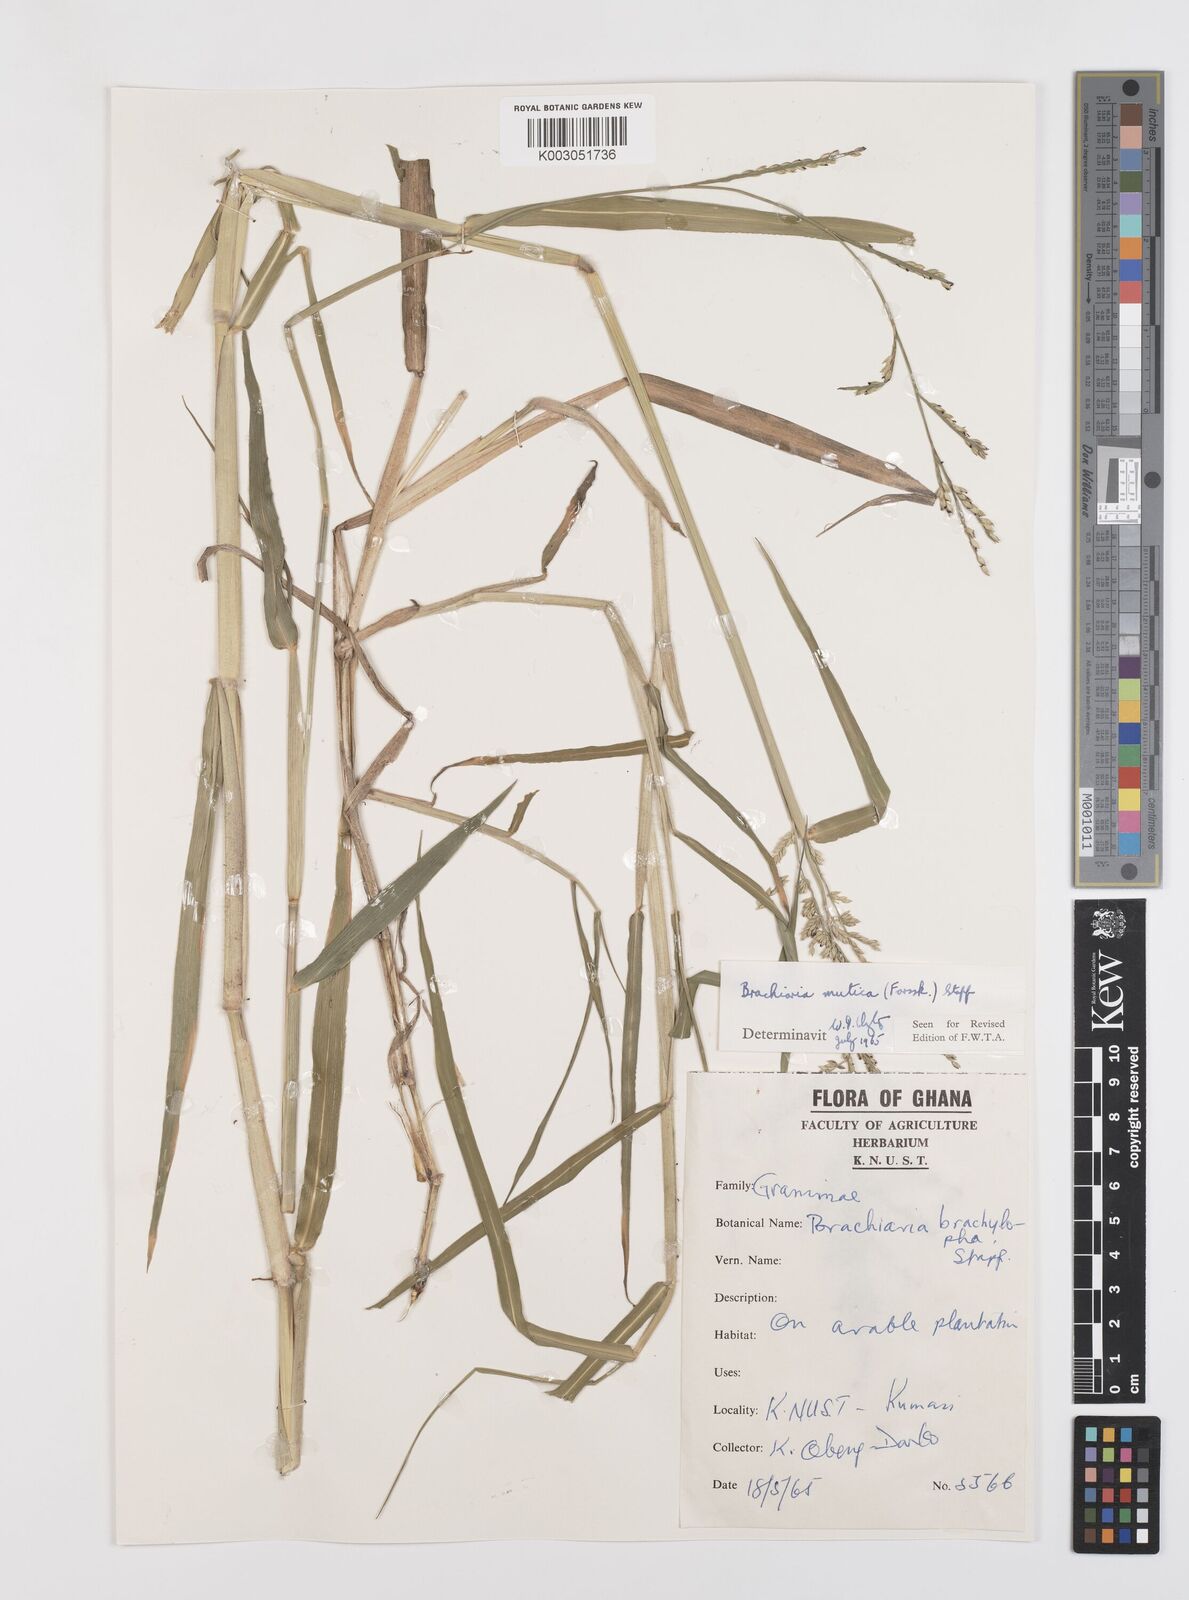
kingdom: Plantae
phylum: Tracheophyta
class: Liliopsida
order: Poales
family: Poaceae
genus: Urochloa
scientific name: Urochloa mutica
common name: Para grass
